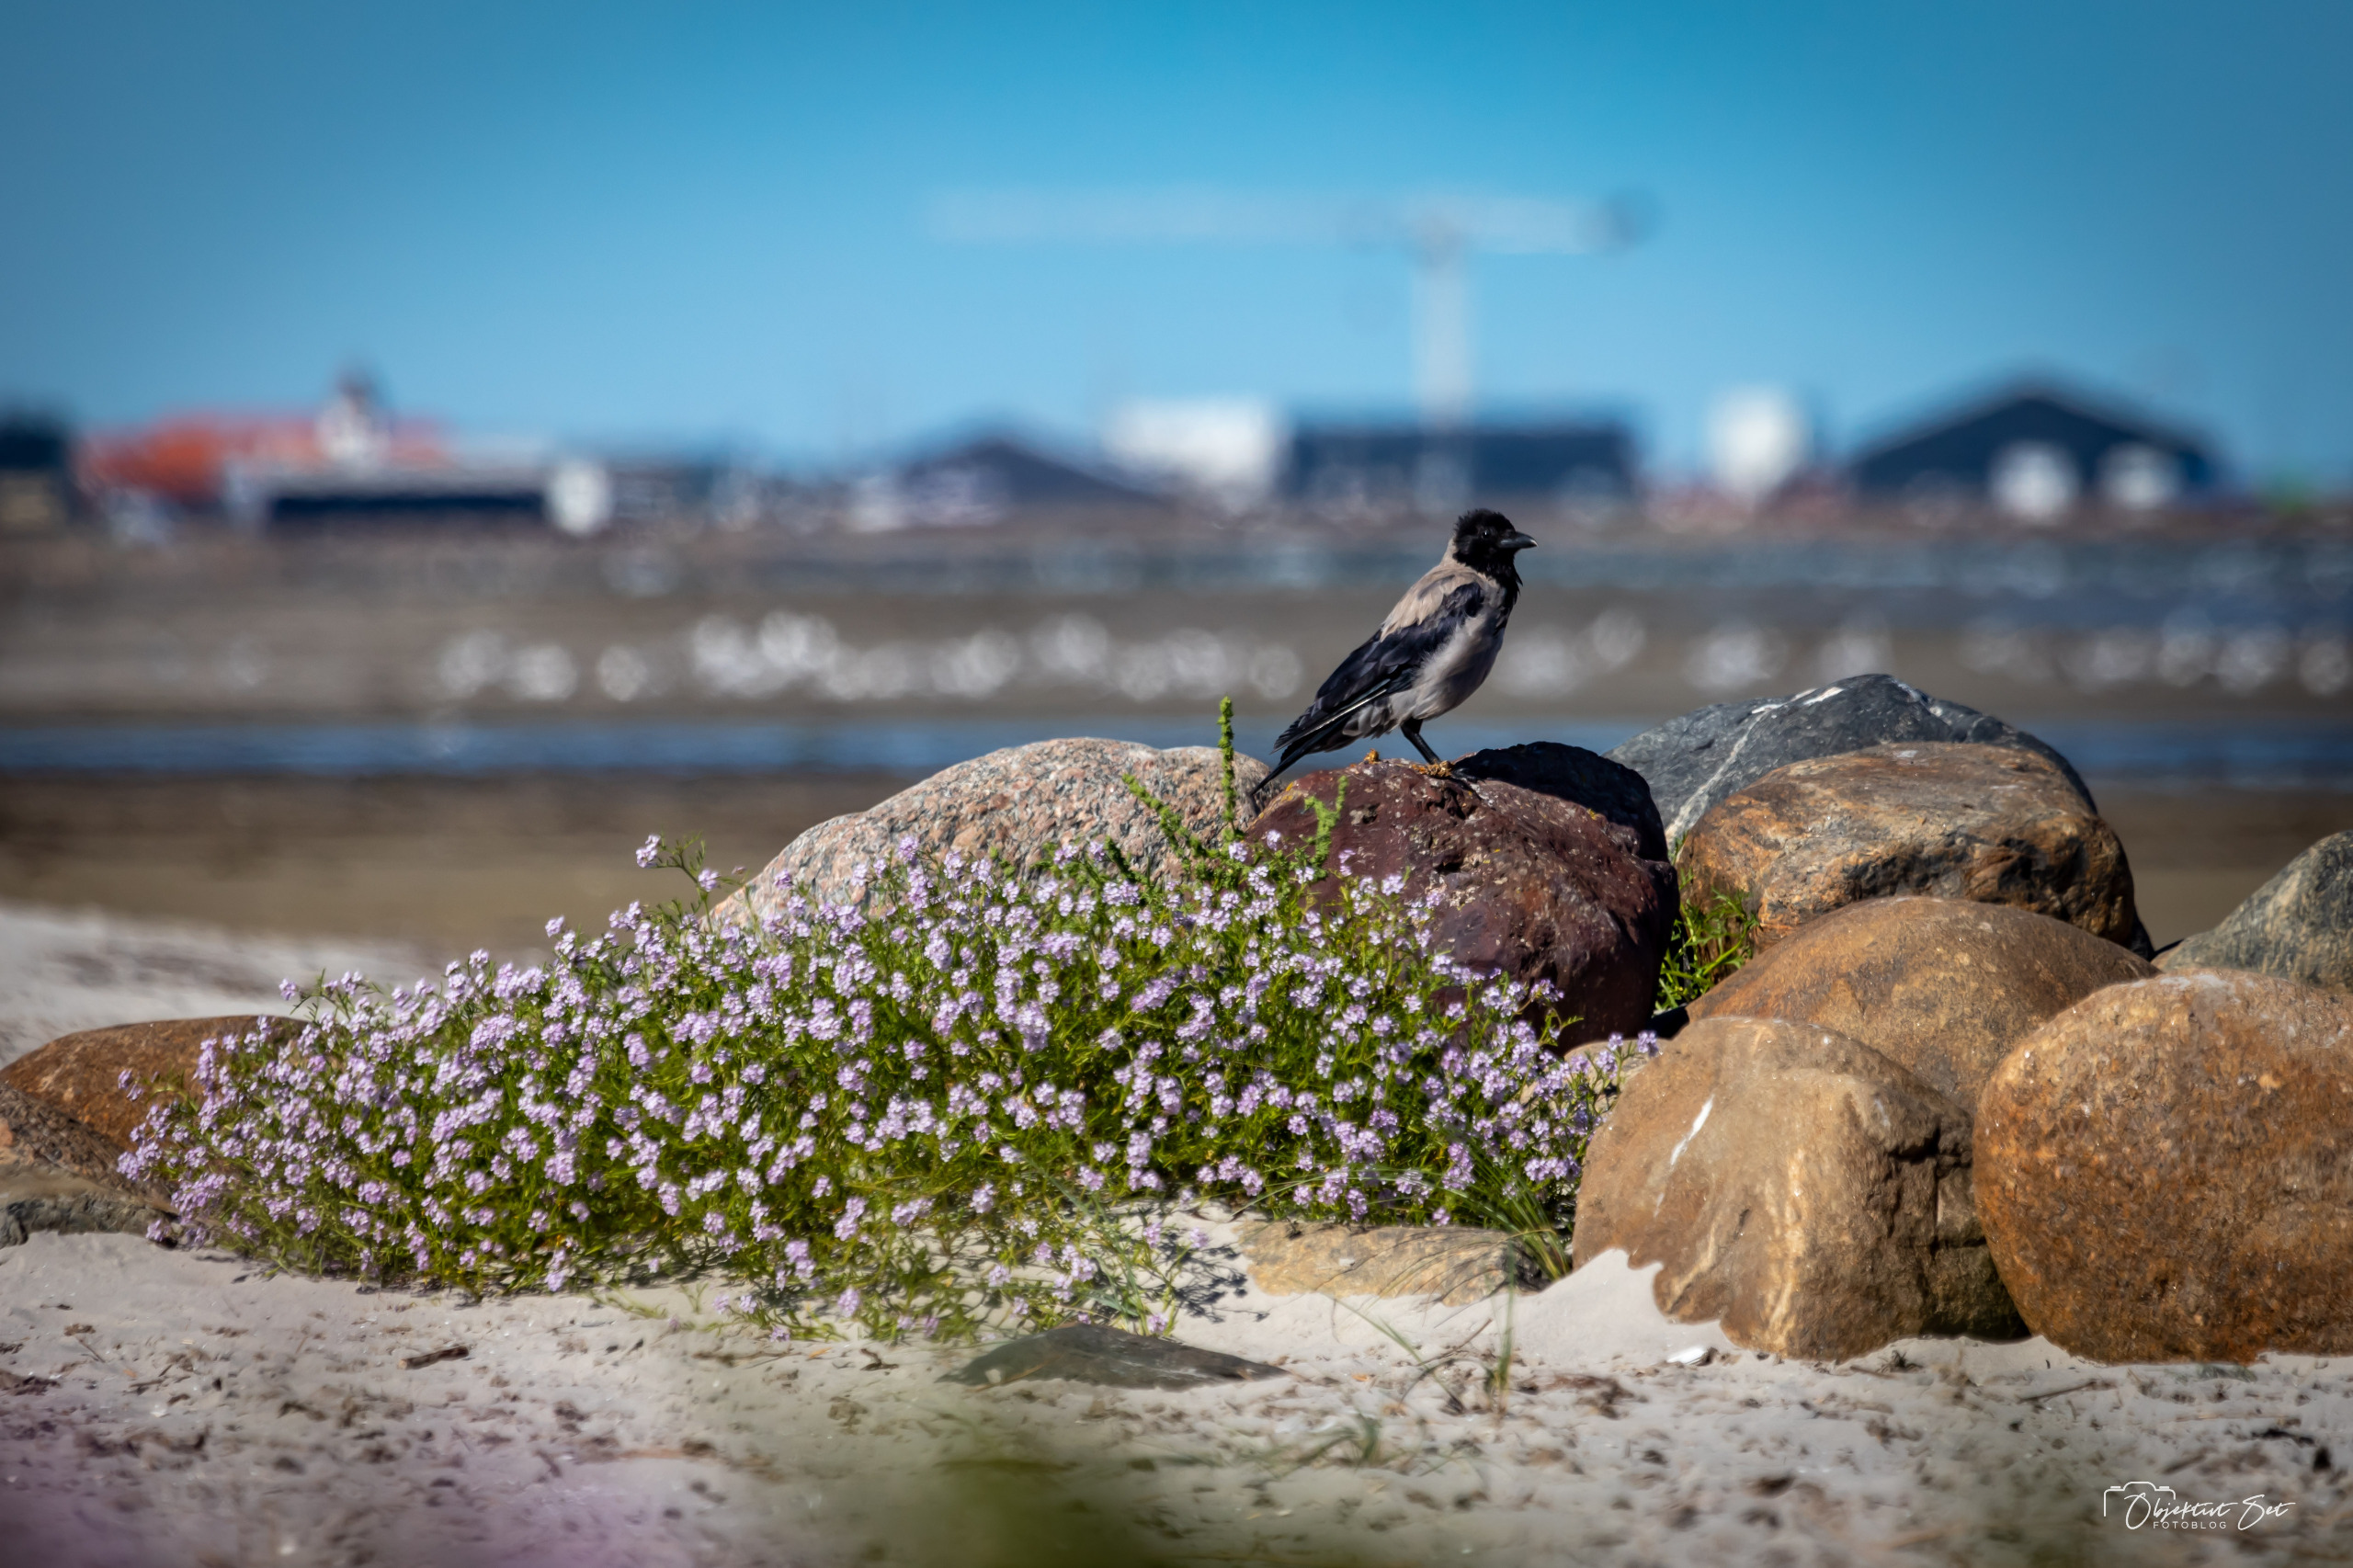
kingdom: Animalia
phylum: Chordata
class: Aves
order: Passeriformes
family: Corvidae
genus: Corvus
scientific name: Corvus cornix
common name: Gråkrage
